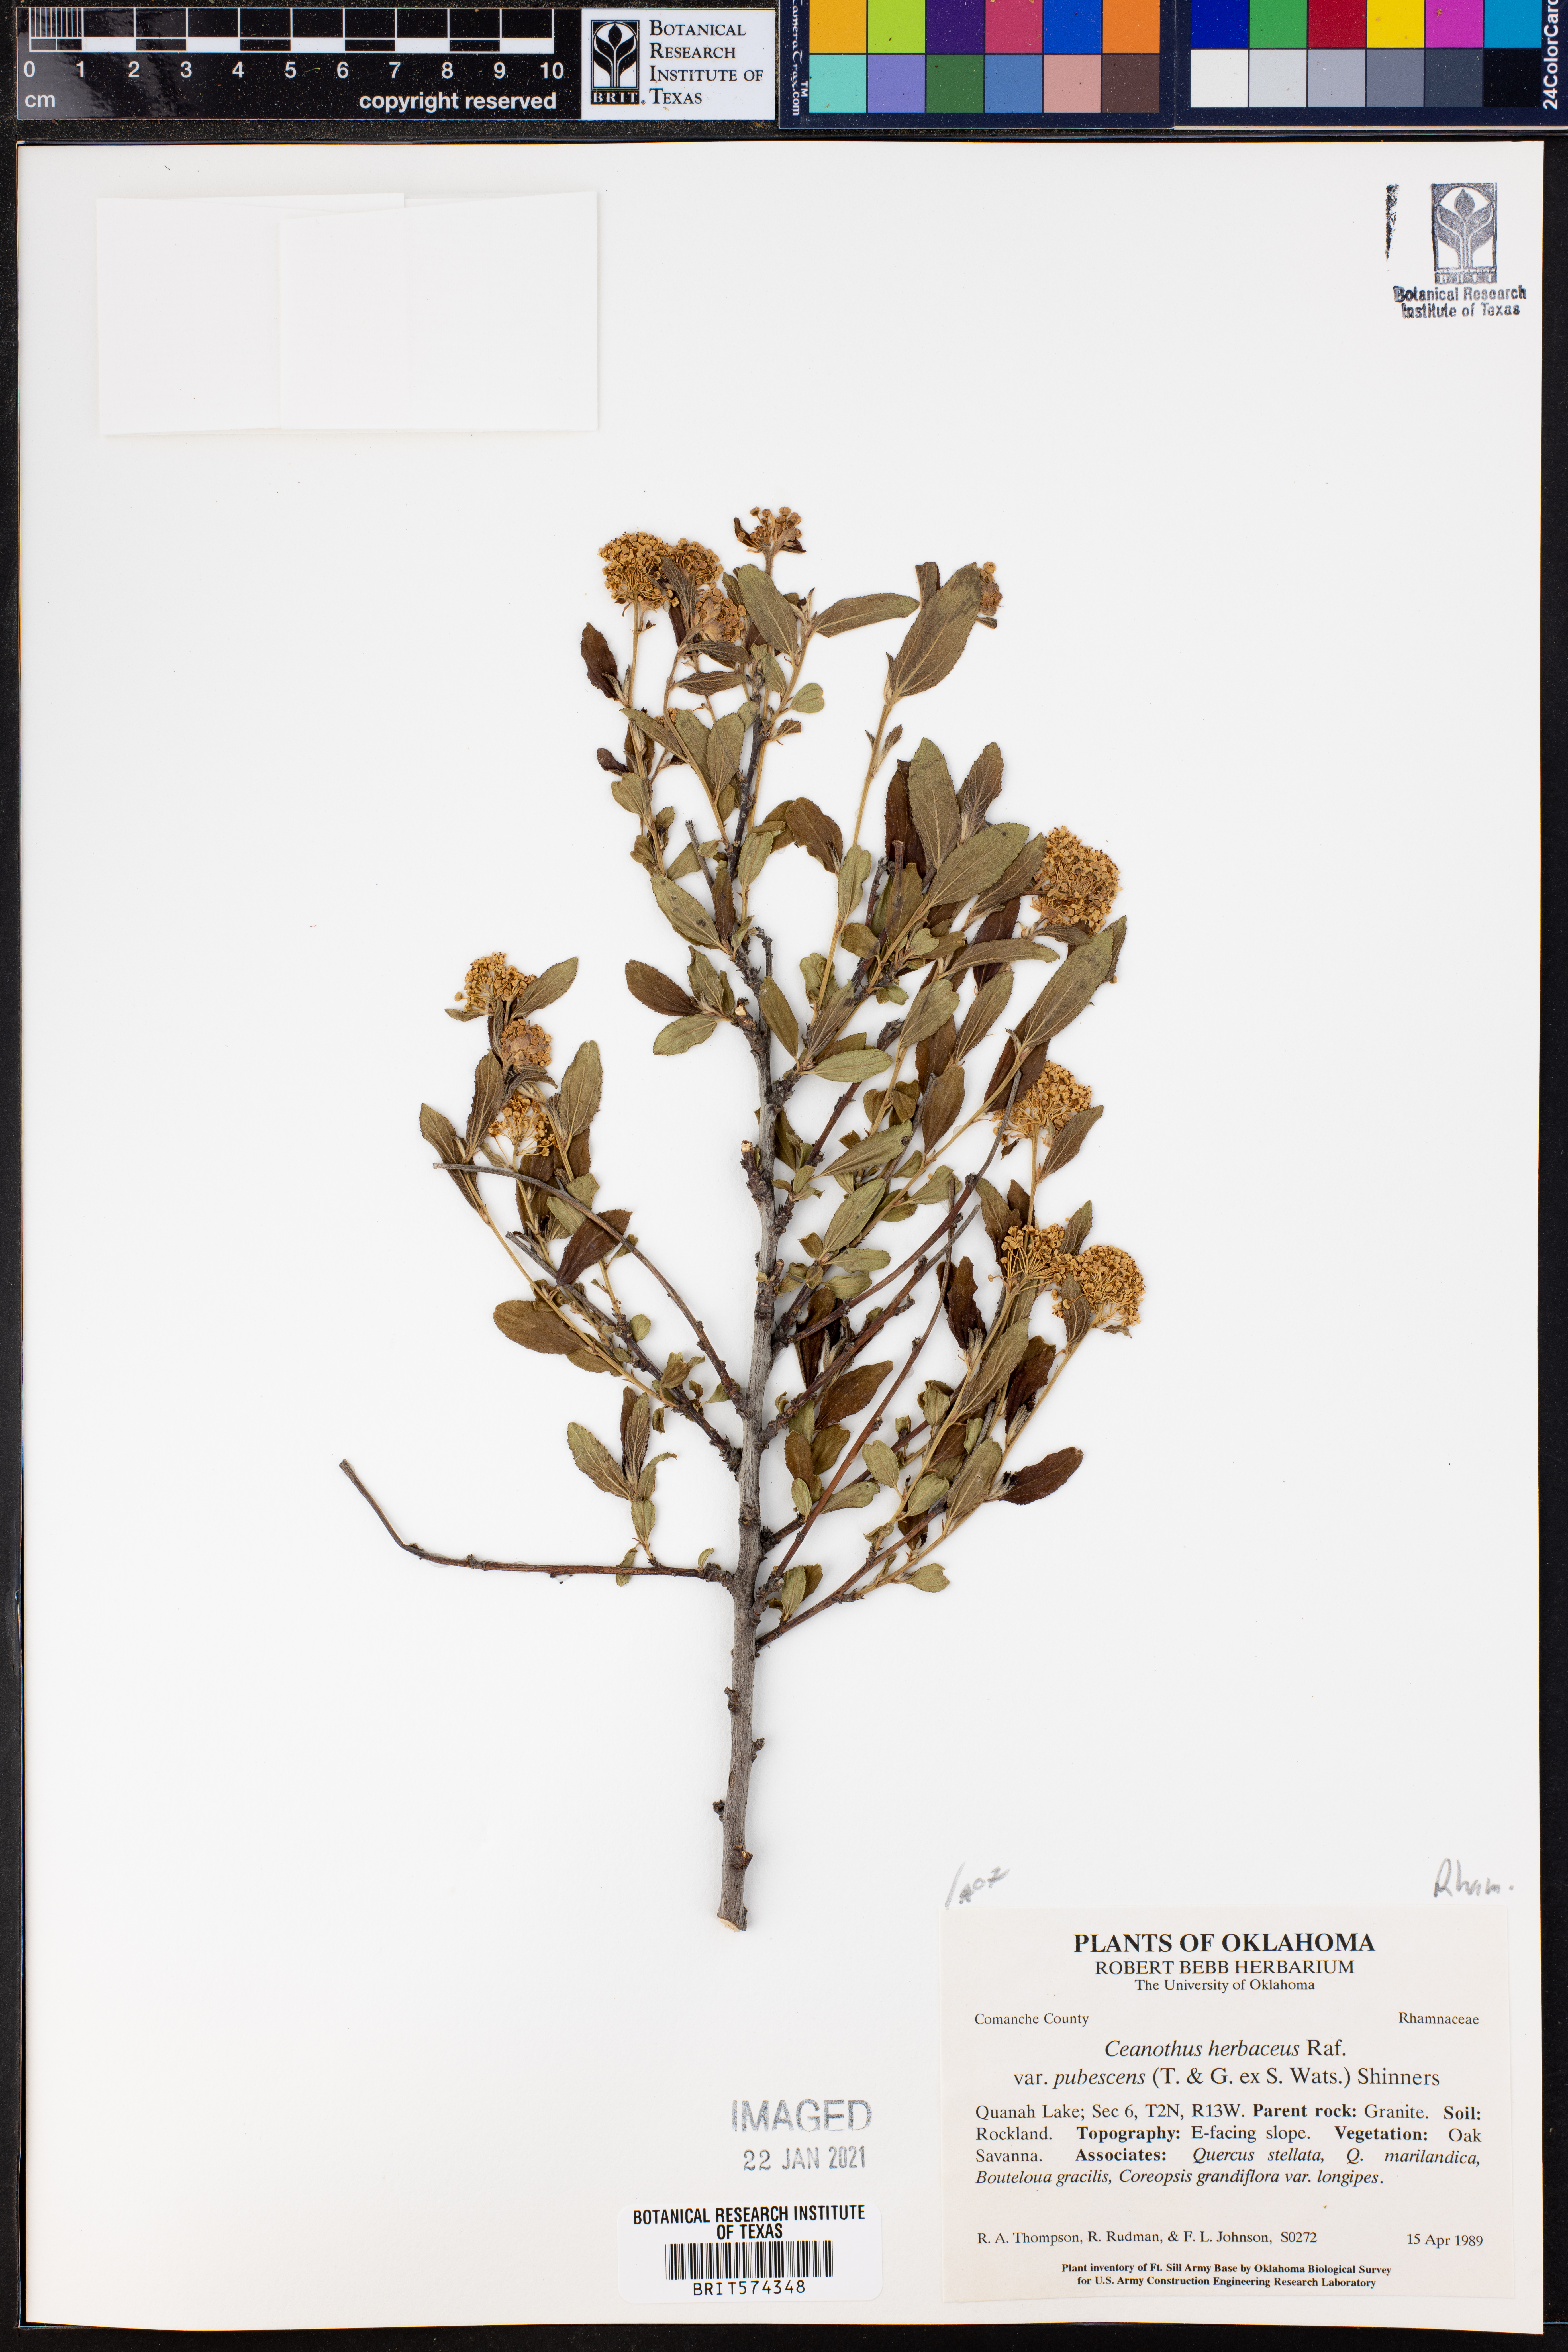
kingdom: Plantae
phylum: Tracheophyta
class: Magnoliopsida
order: Rosales
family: Rhamnaceae
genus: Ceanothus
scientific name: Ceanothus herbaceus
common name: Inland ceanothus
